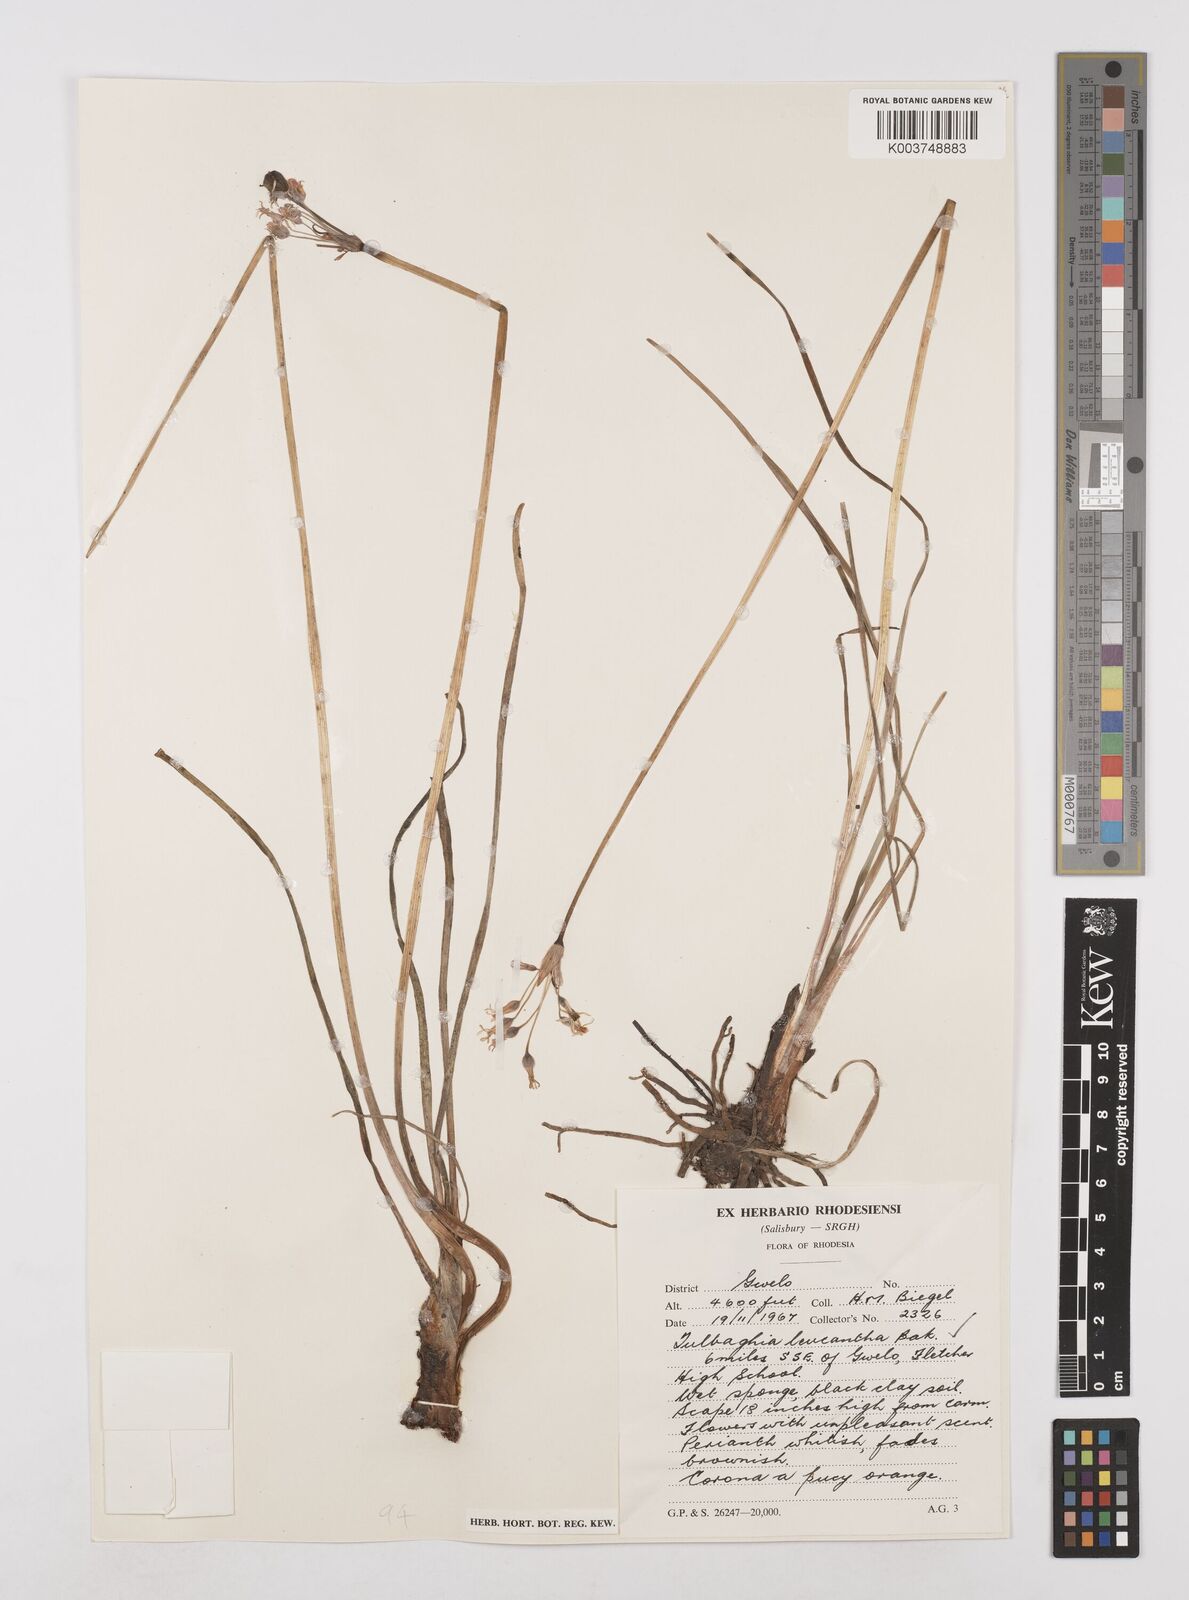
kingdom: Plantae
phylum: Tracheophyta
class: Liliopsida
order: Asparagales
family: Amaryllidaceae
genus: Tulbaghia
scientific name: Tulbaghia leucantha
